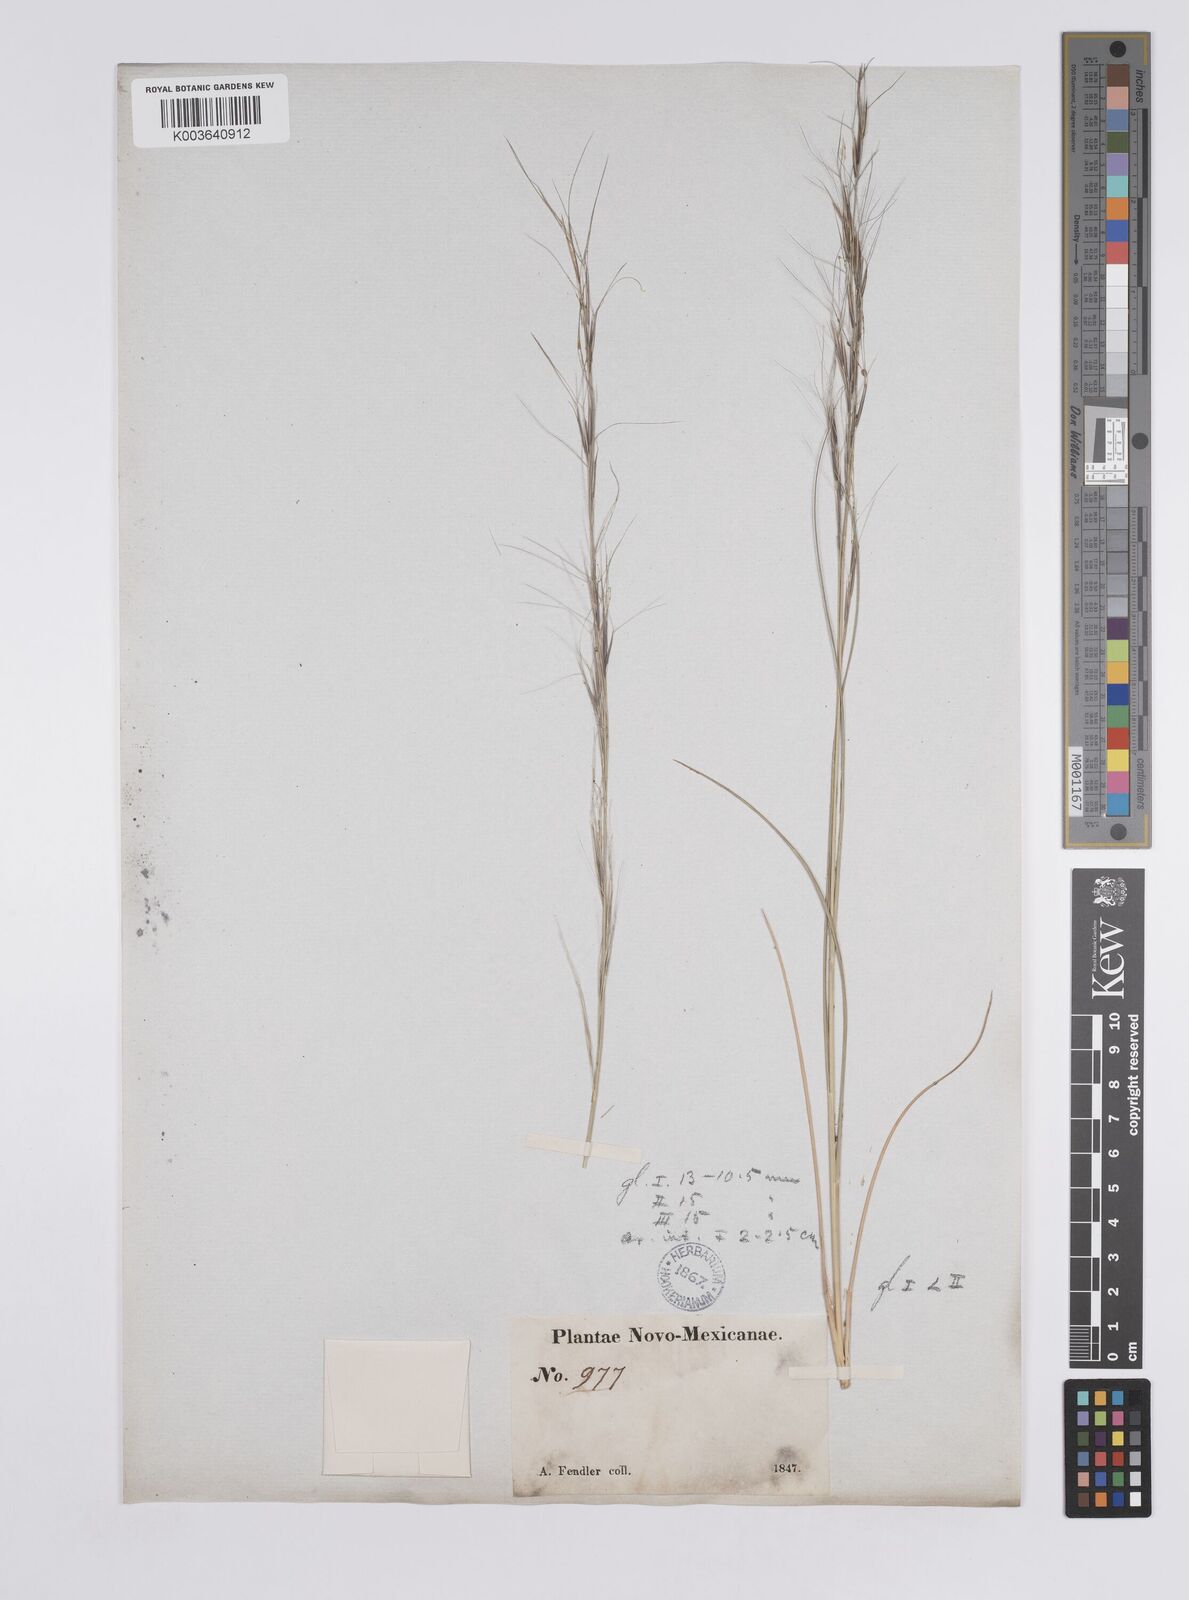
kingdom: Plantae
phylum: Tracheophyta
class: Liliopsida
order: Poales
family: Poaceae
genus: Aristida
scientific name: Aristida purpurea
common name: Purple threeawn
